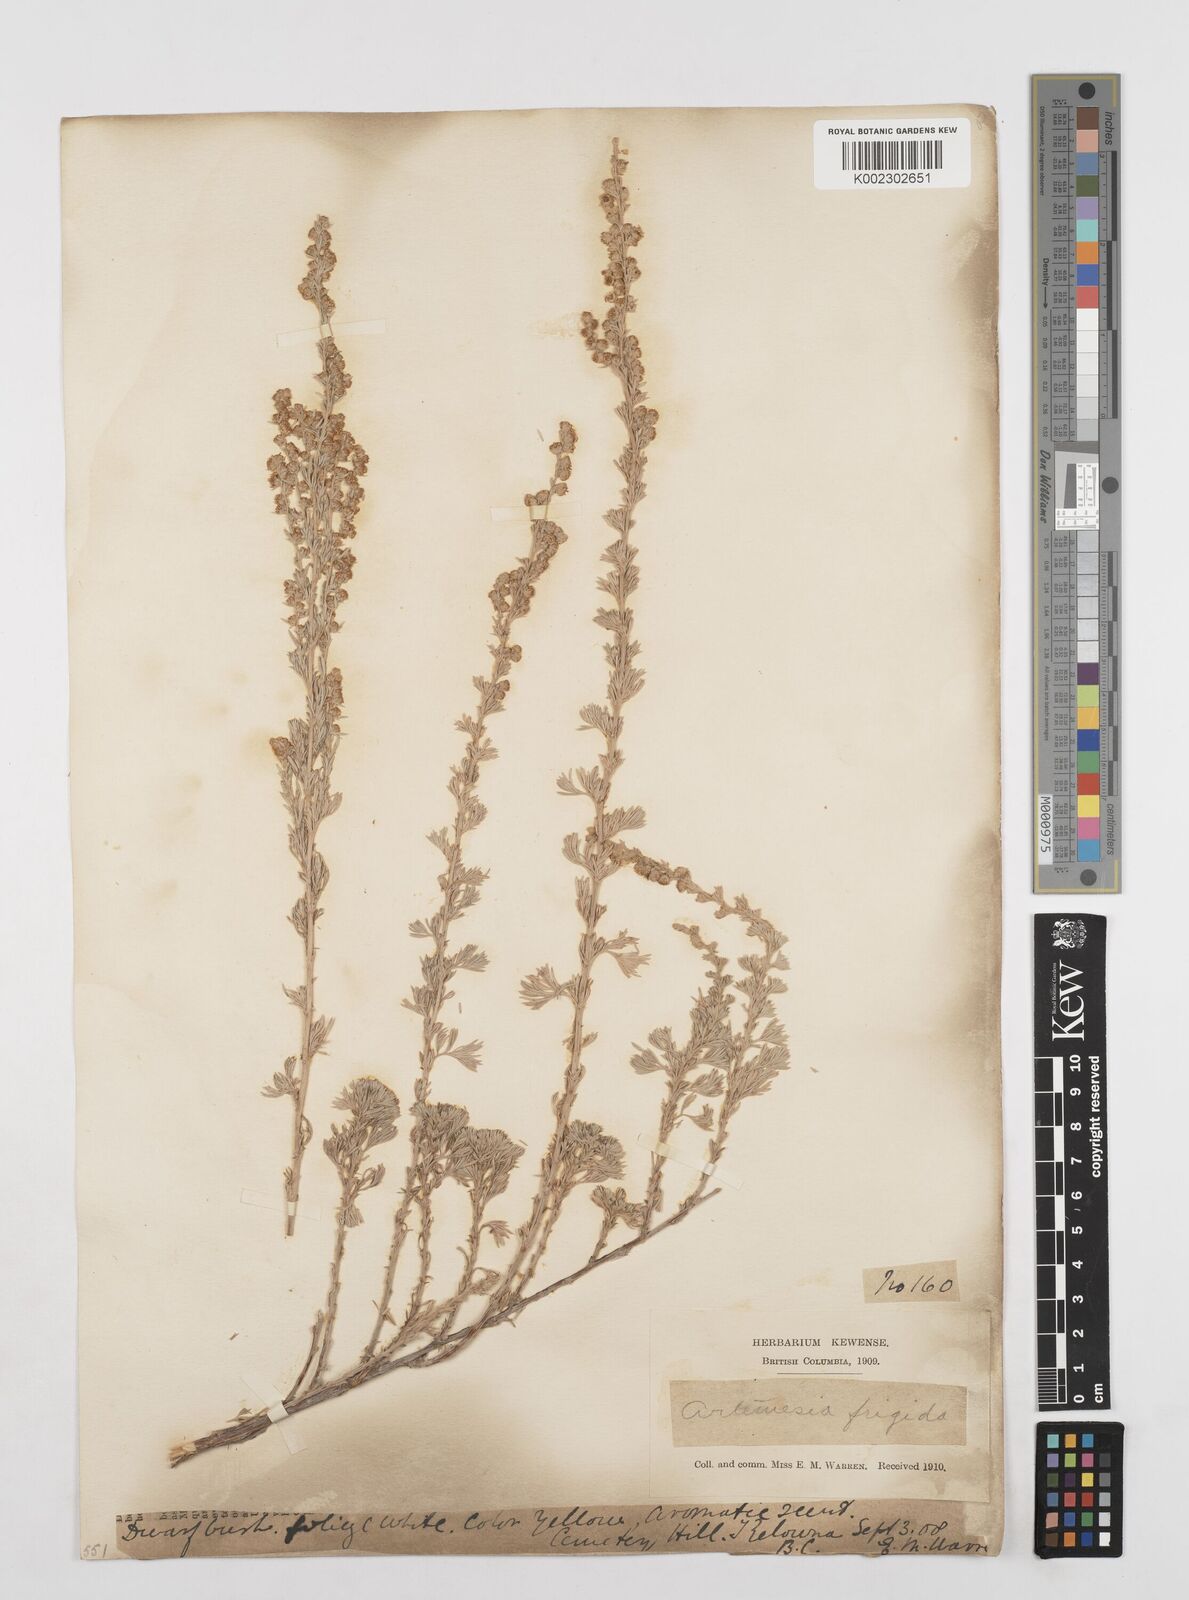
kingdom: Plantae
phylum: Tracheophyta
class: Magnoliopsida
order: Asterales
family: Asteraceae
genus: Artemisia
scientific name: Artemisia frigida
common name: Prairie sagewort
